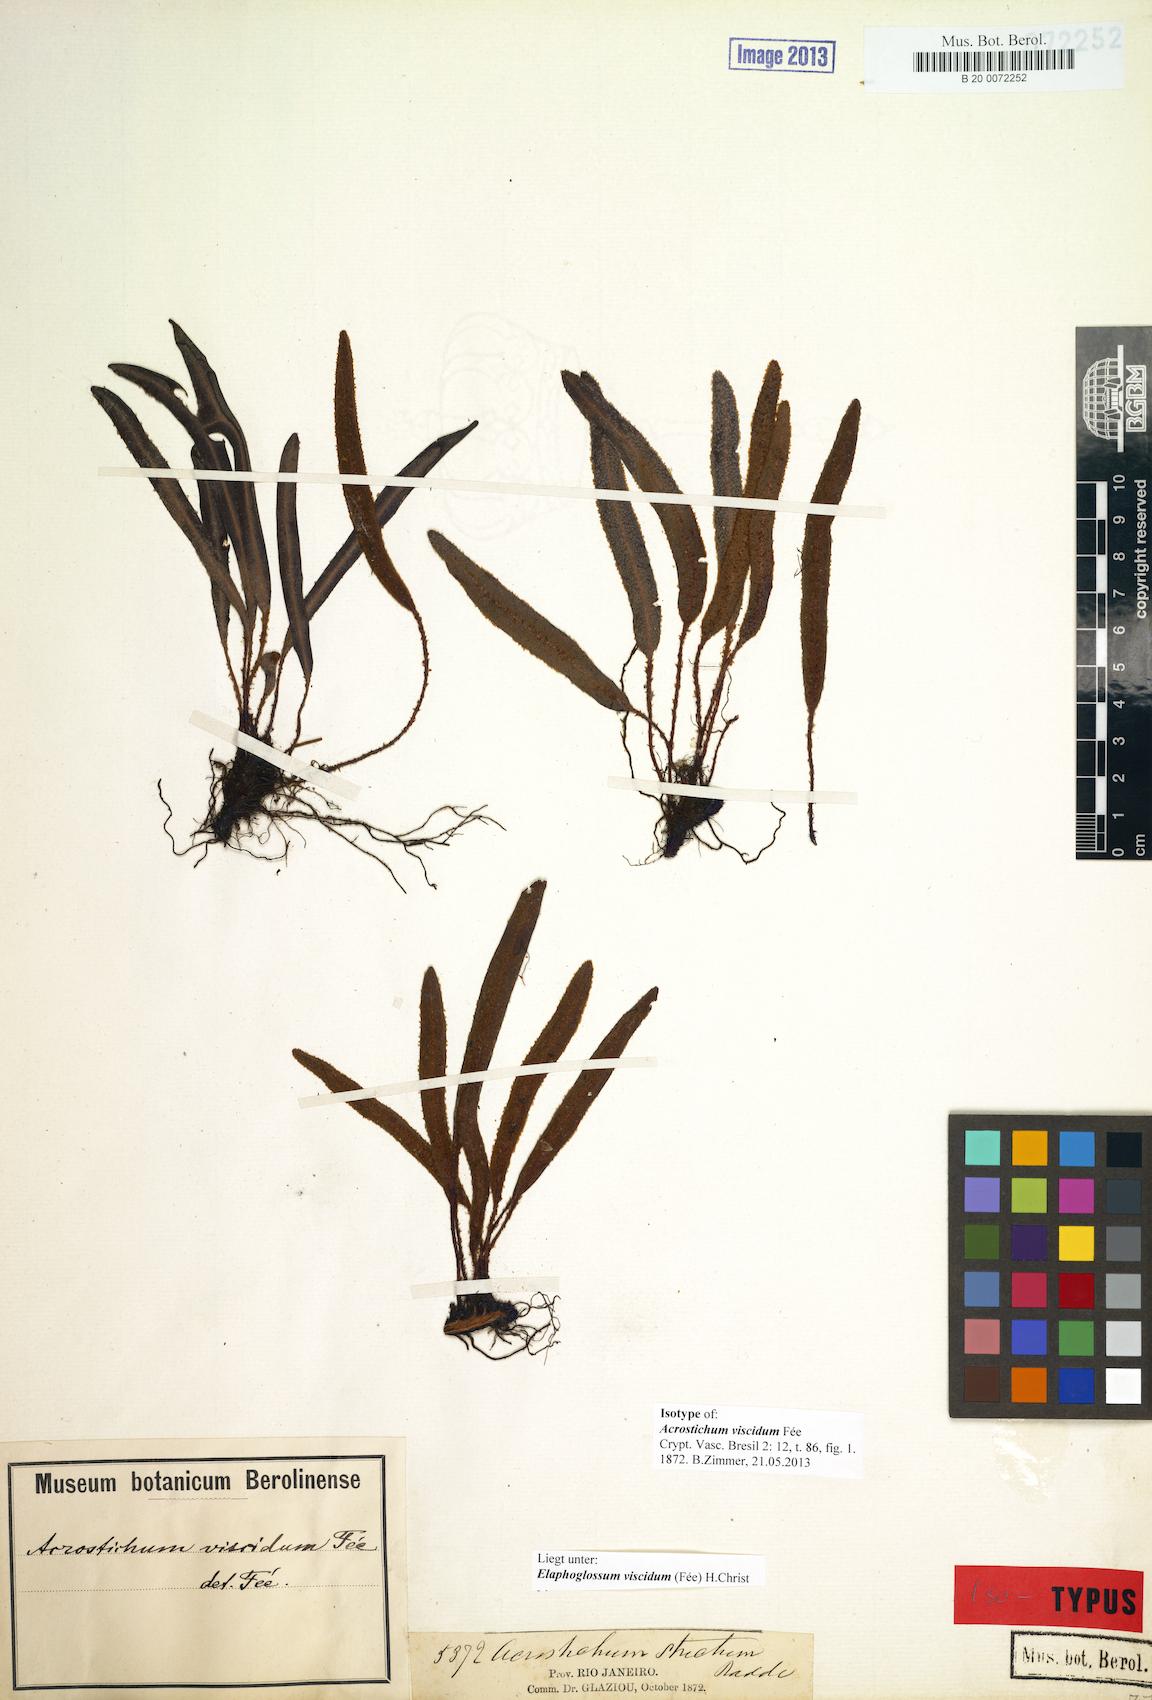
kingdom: Plantae
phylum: Tracheophyta
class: Polypodiopsida
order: Polypodiales
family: Dryopteridaceae
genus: Elaphoglossum
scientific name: Elaphoglossum viscidum
